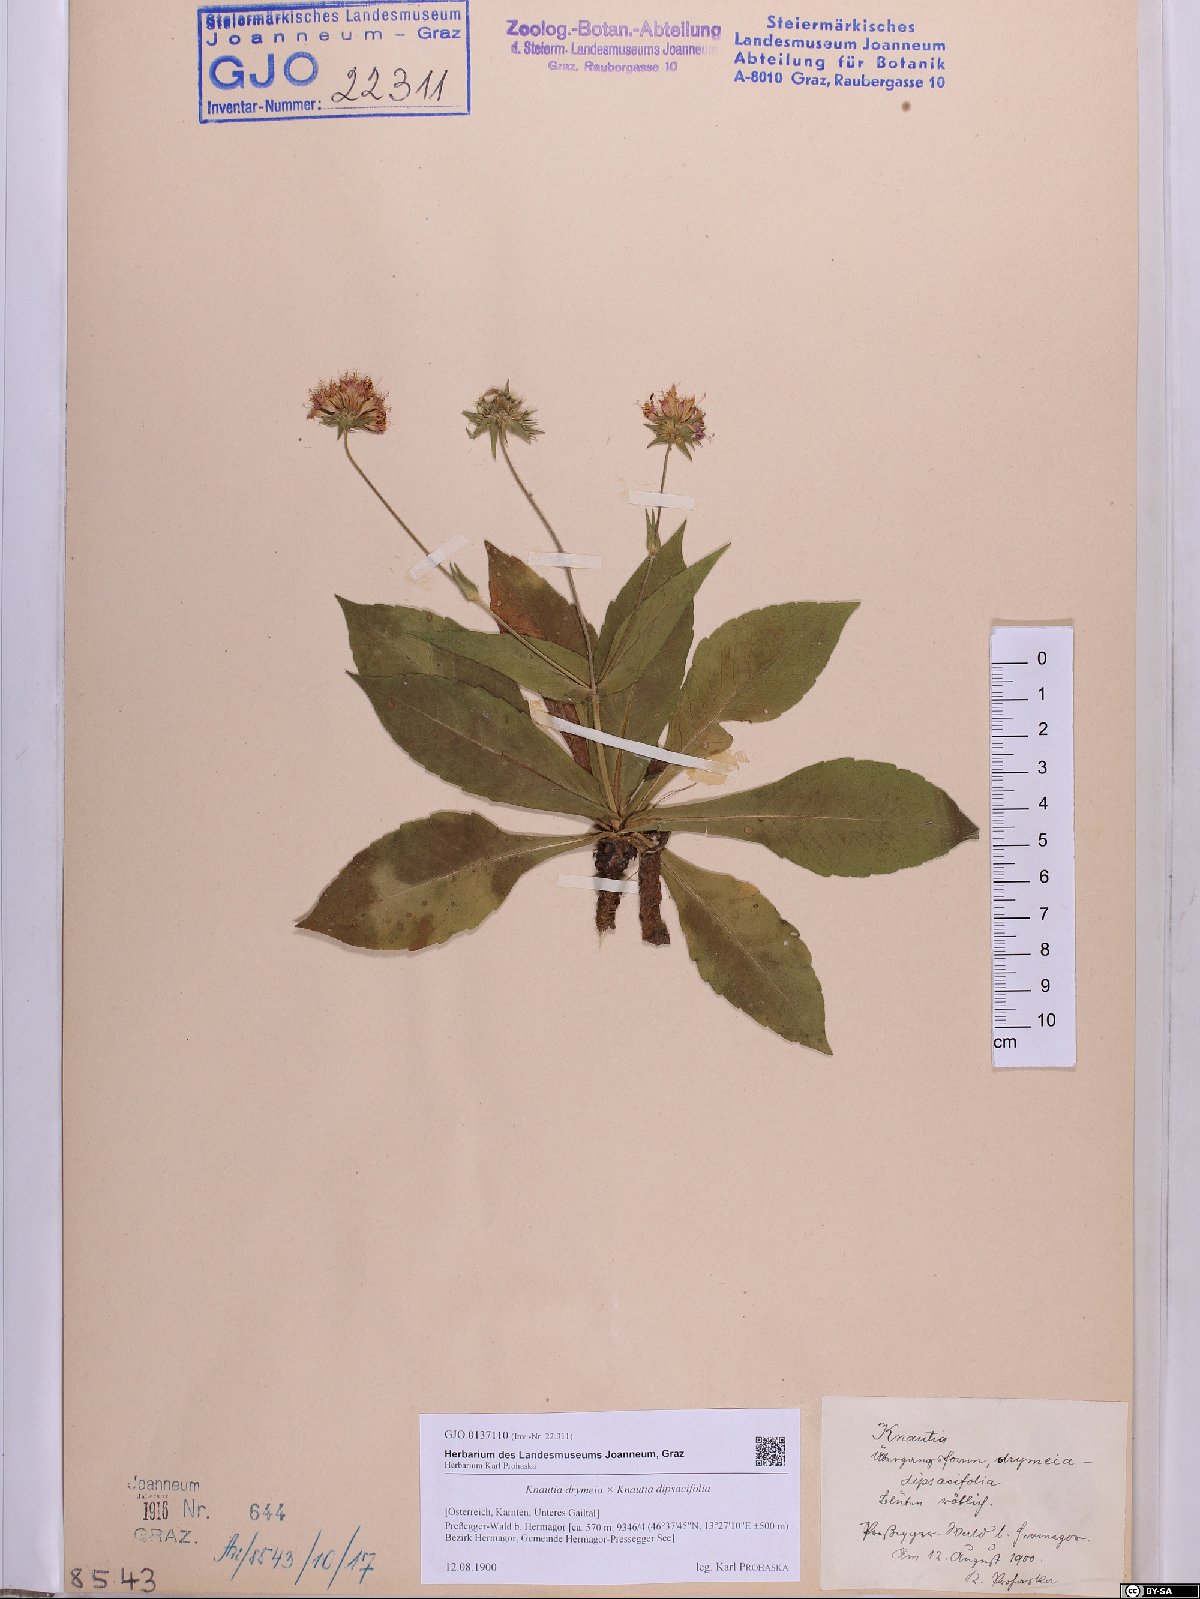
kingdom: Plantae
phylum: Tracheophyta
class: Magnoliopsida
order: Dipsacales
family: Dipsacaceae
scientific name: Dipsacaceae
